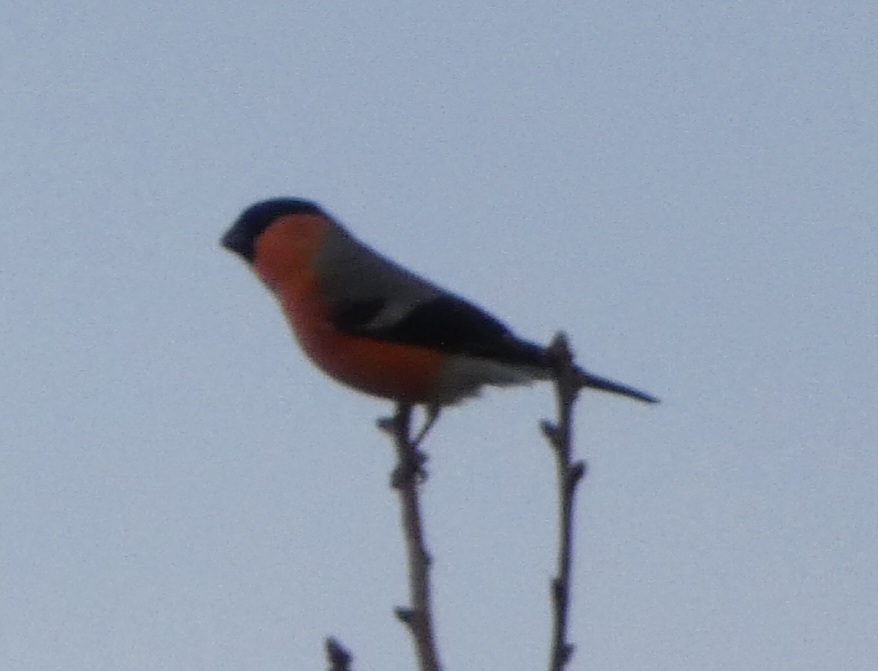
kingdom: Animalia
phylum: Chordata
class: Aves
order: Passeriformes
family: Fringillidae
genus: Pyrrhula
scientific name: Pyrrhula pyrrhula
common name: Dompap
